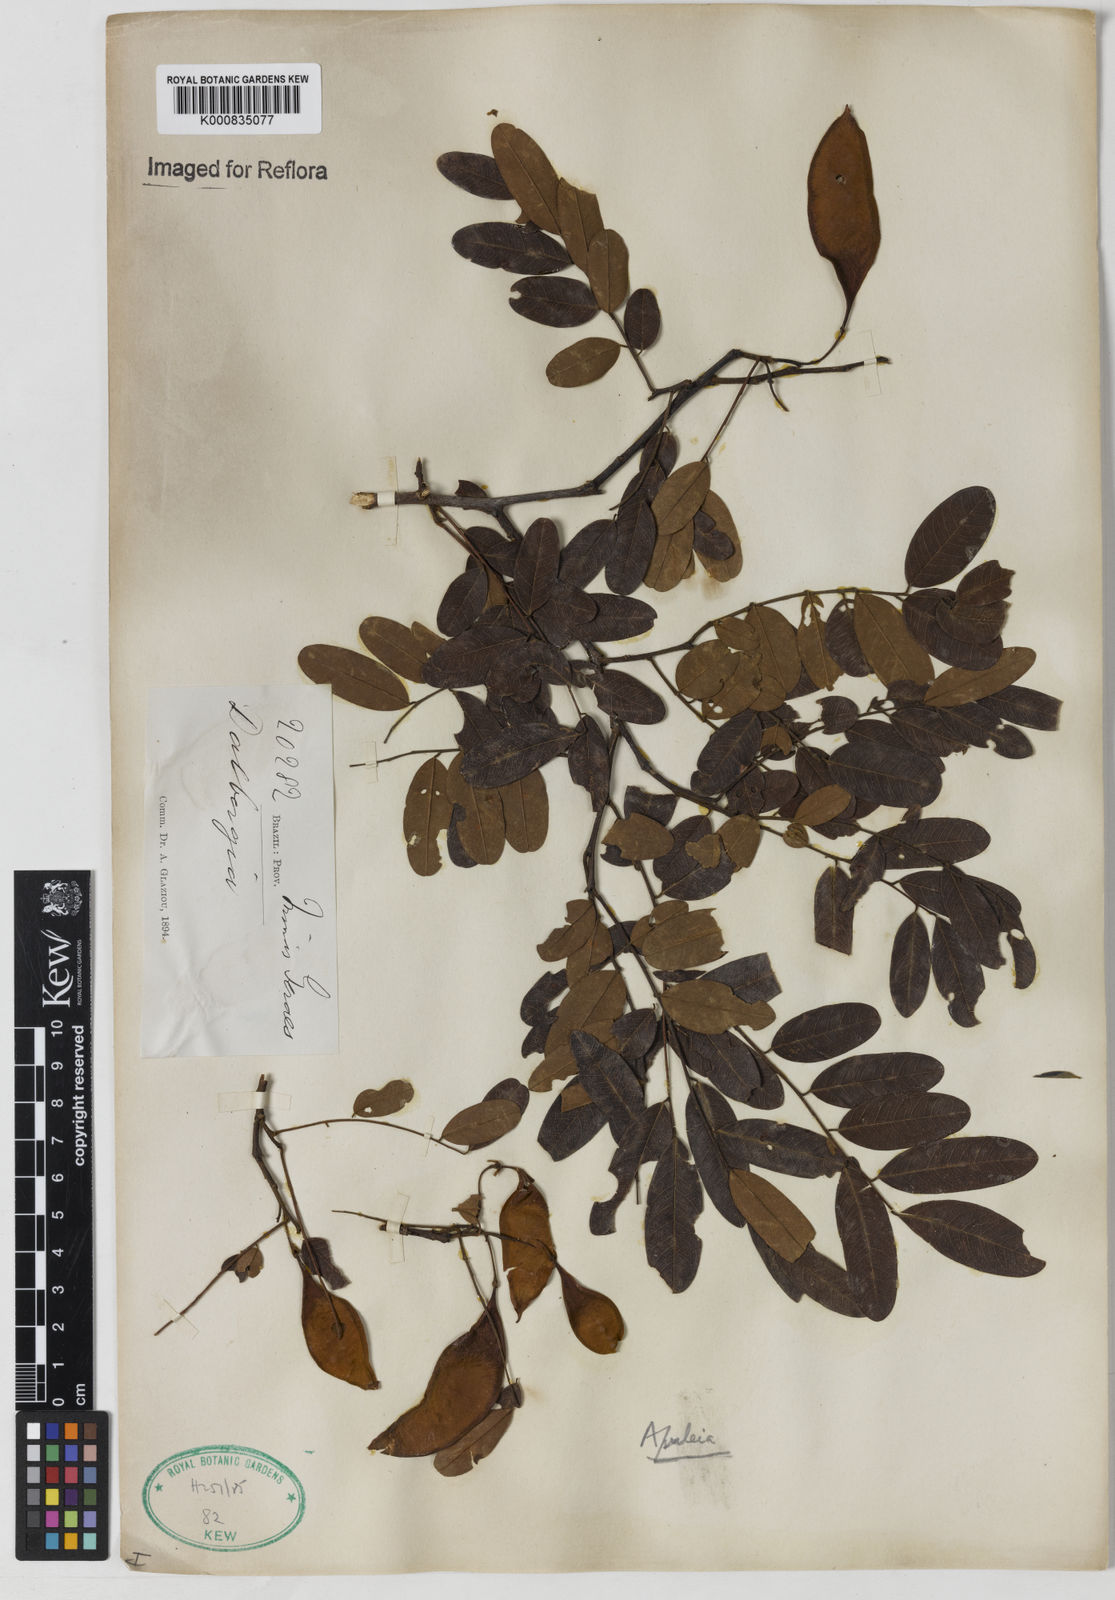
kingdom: Plantae
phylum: Tracheophyta
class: Magnoliopsida
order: Fabales
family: Fabaceae
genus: Dalbergia
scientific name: Dalbergia
